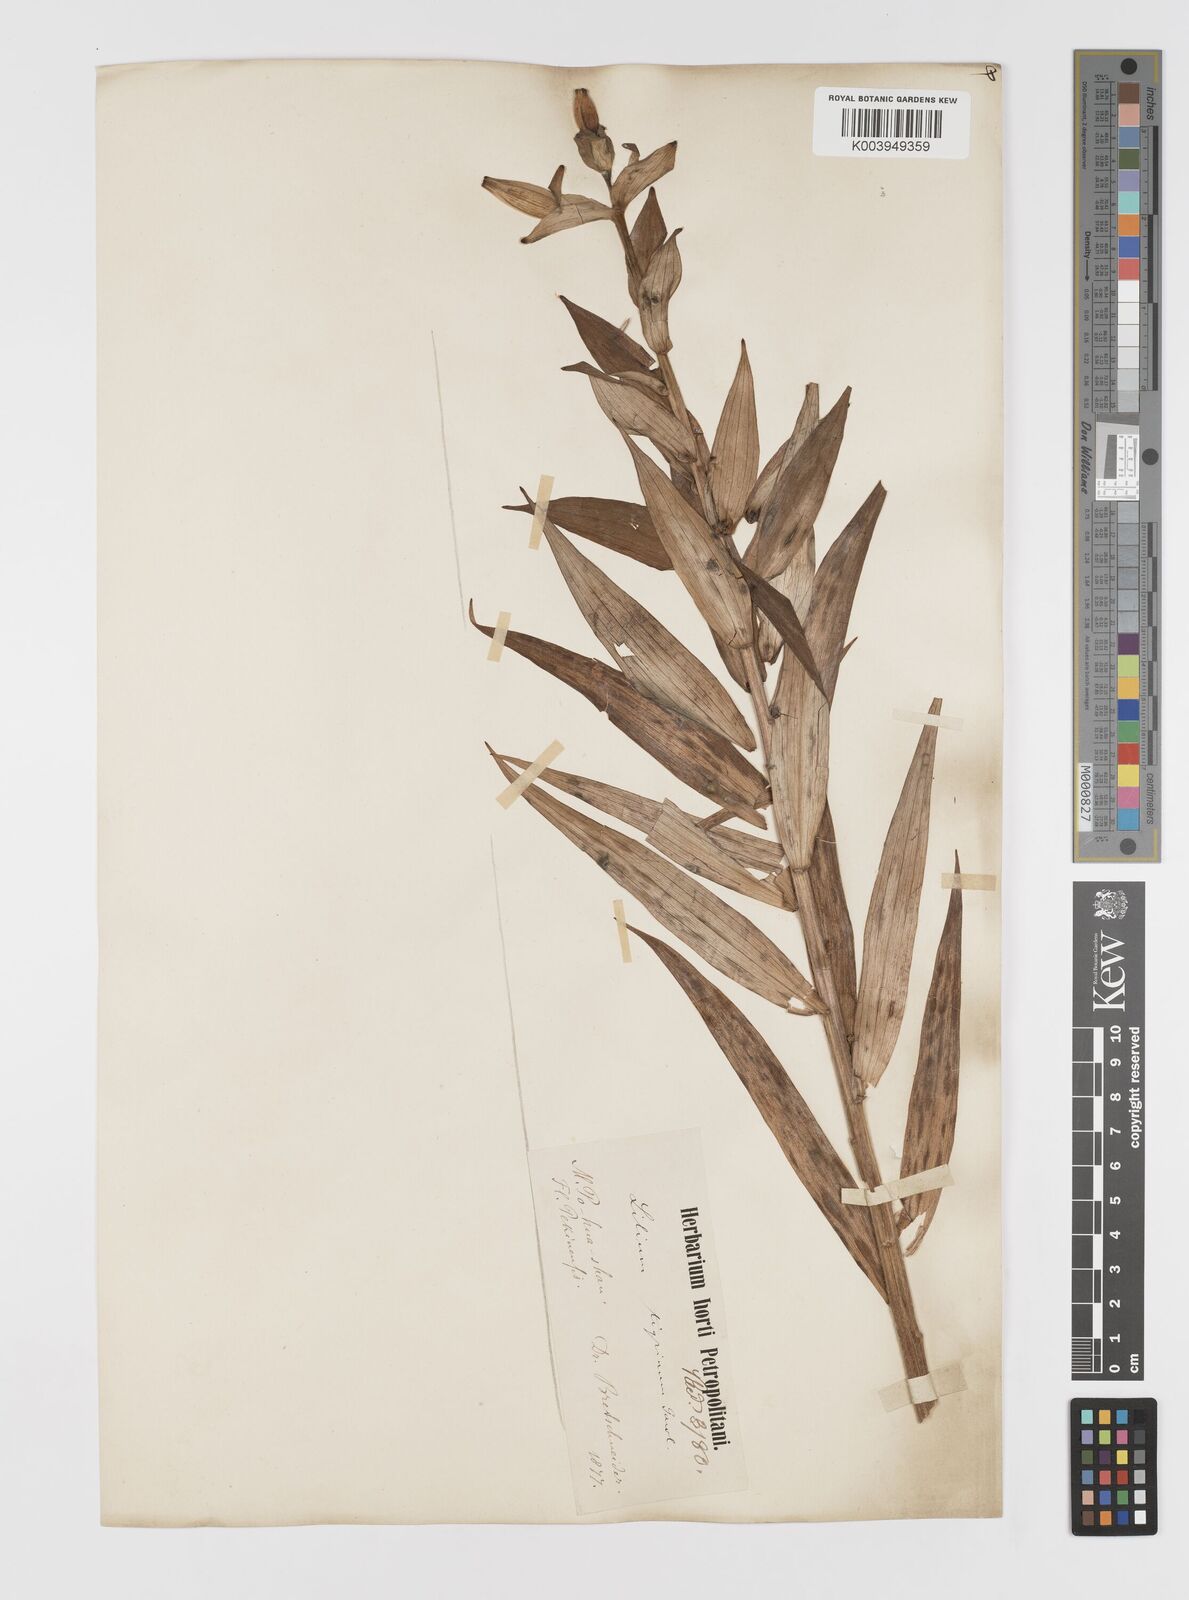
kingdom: Plantae
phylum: Tracheophyta
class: Liliopsida
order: Liliales
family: Liliaceae
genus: Lilium
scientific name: Lilium lancifolium
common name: Tiger lily
